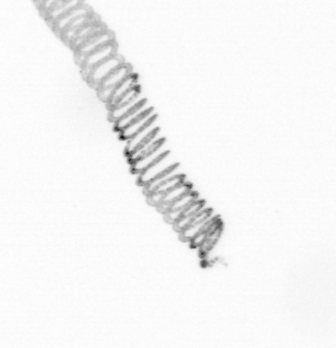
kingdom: Chromista
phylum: Ochrophyta
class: Bacillariophyceae
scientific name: Bacillariophyceae
